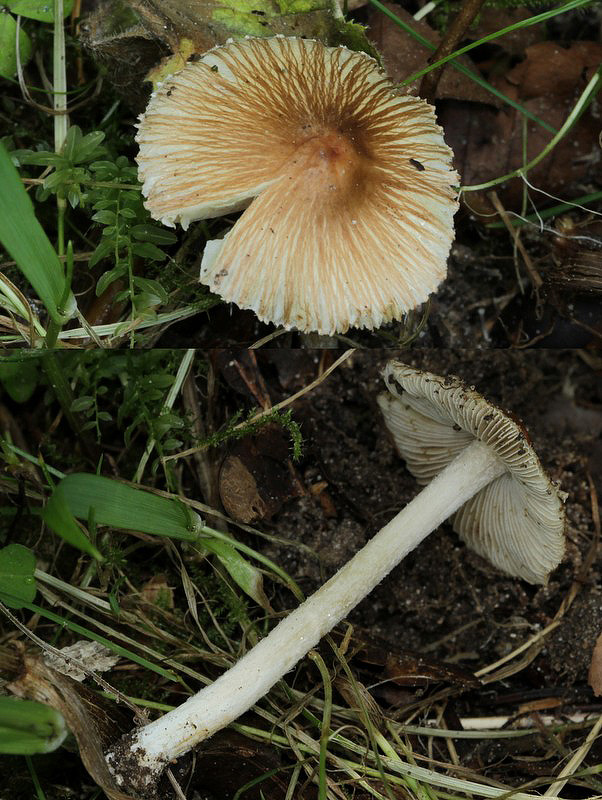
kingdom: Fungi
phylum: Basidiomycota
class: Agaricomycetes
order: Agaricales
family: Inocybaceae
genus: Pseudosperma
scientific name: Pseudosperma rimosum
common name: gulbladet trævlhat
